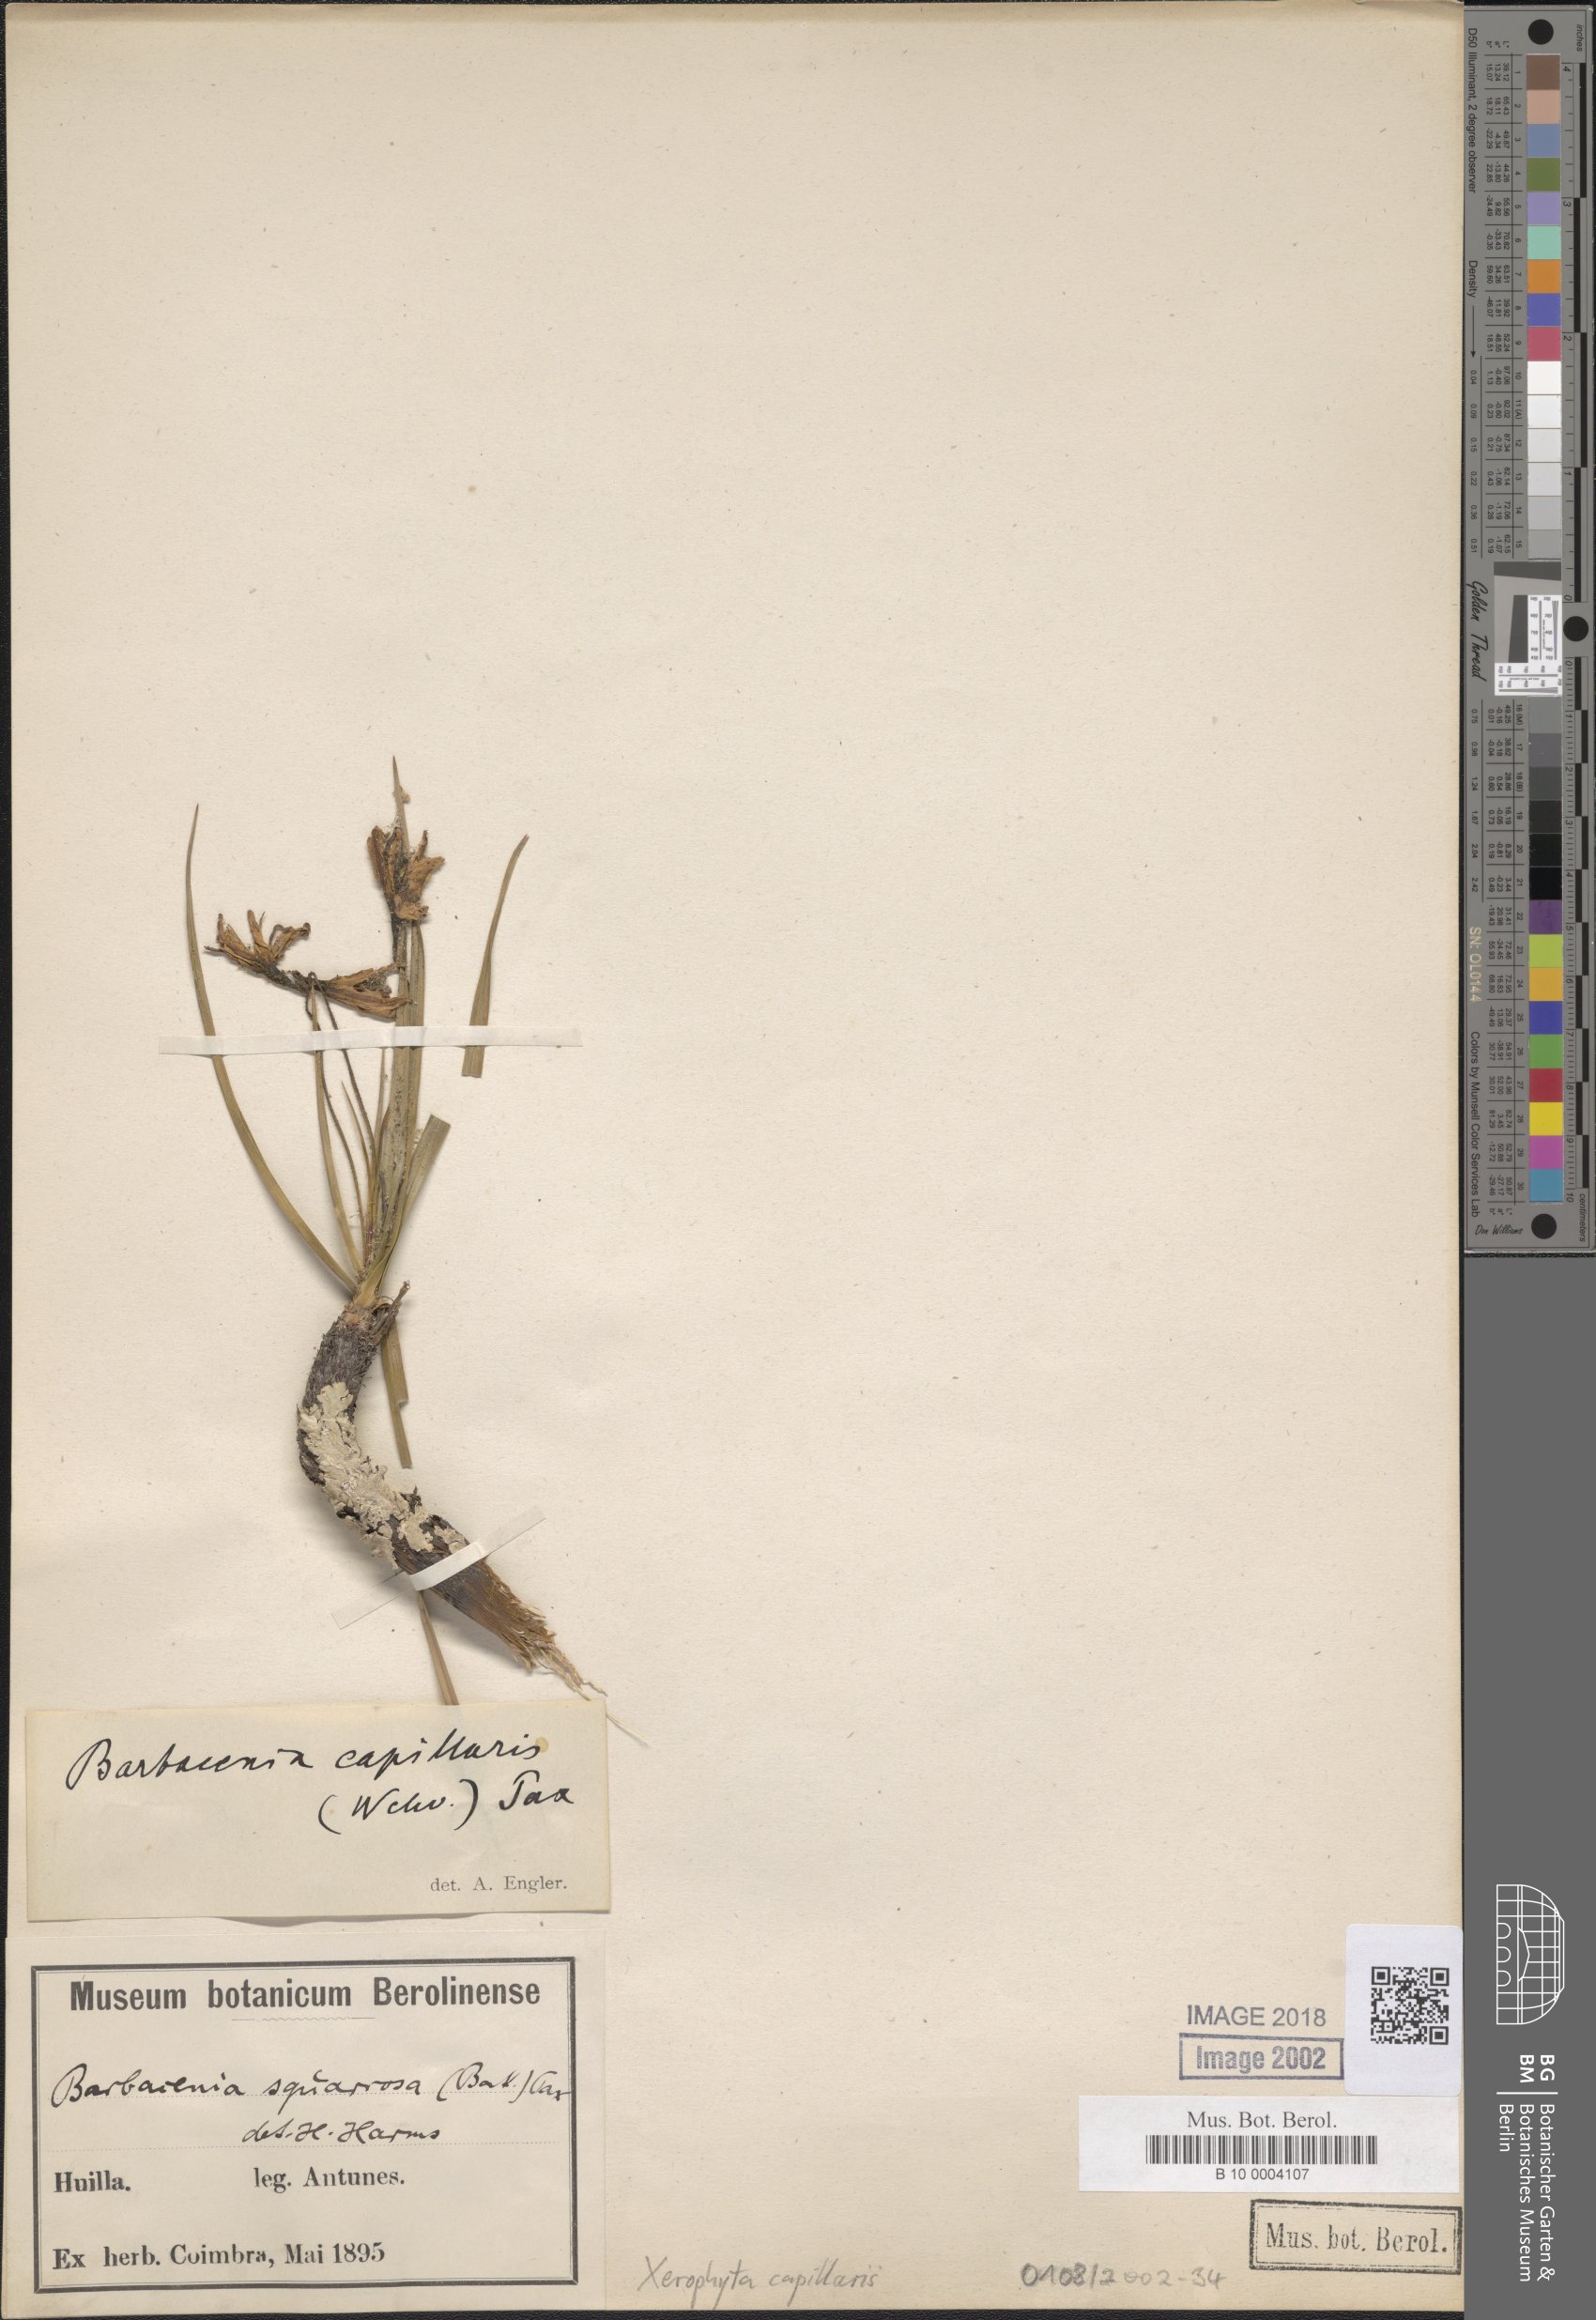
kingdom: Plantae
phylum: Tracheophyta
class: Liliopsida
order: Pandanales
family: Velloziaceae
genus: Xerophyta
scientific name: Xerophyta capillaris
